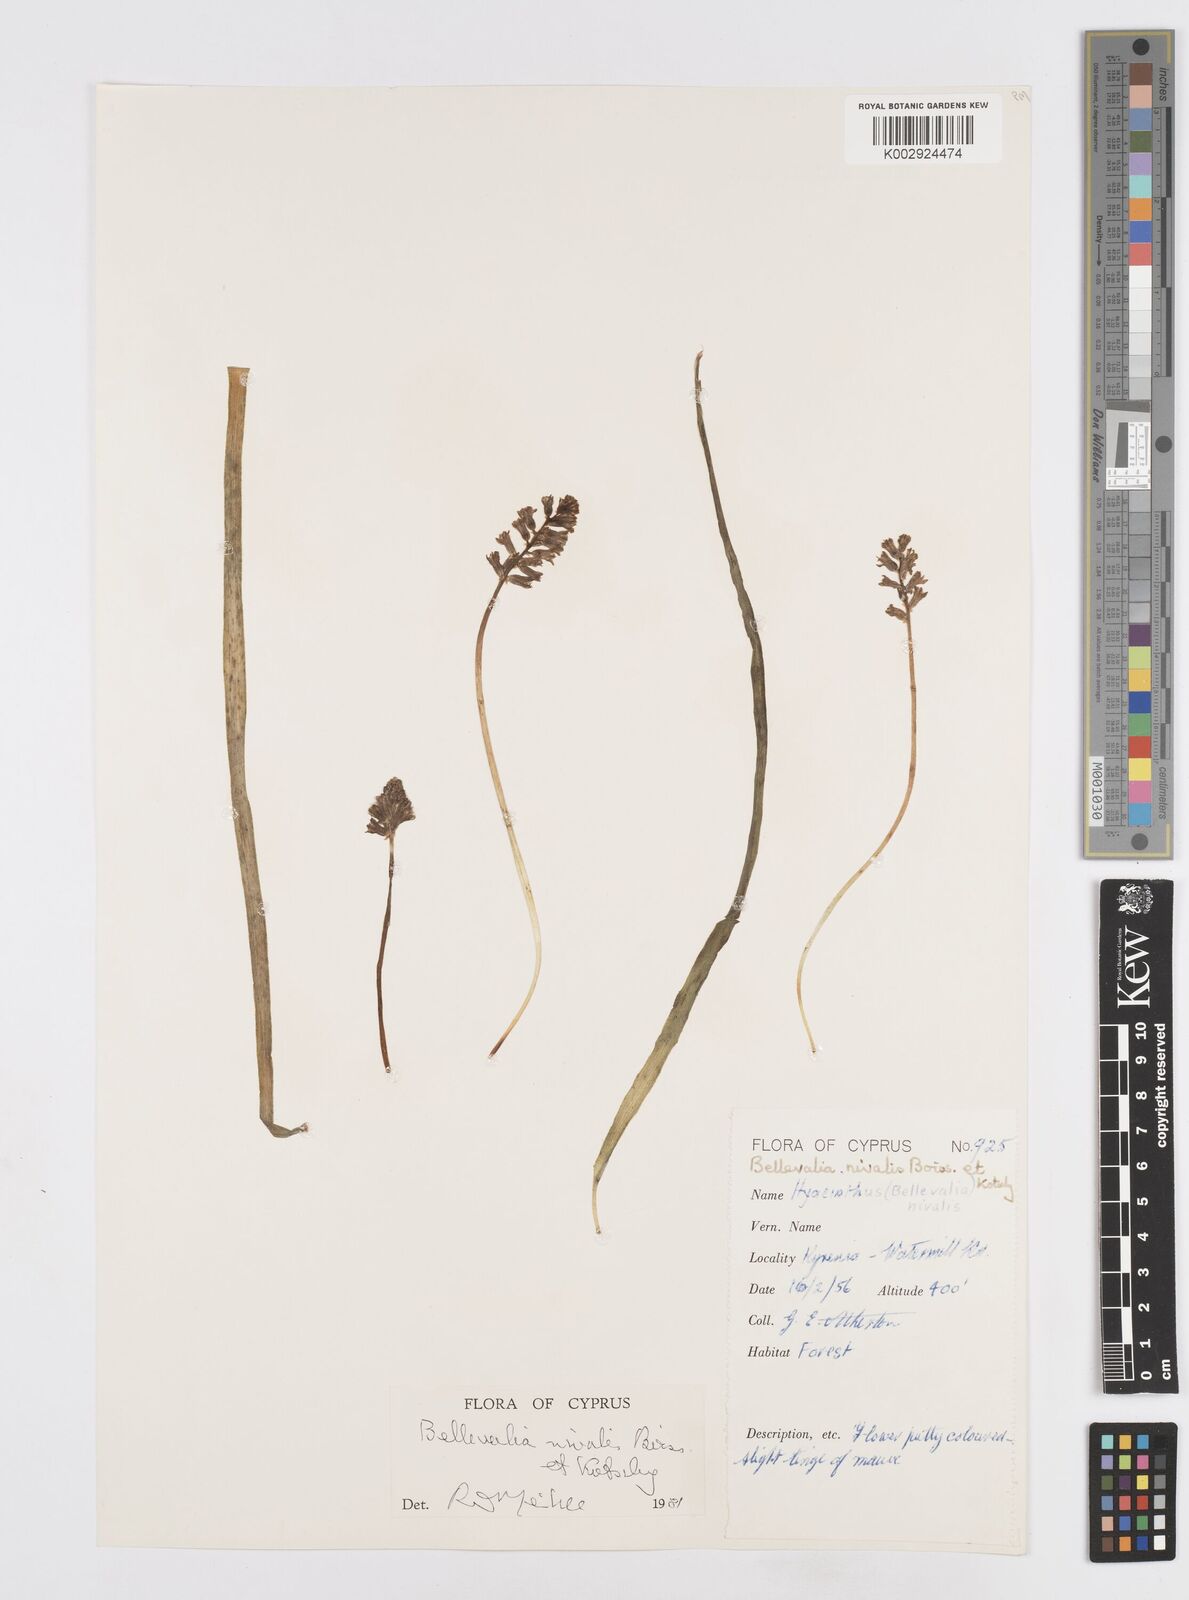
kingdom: Plantae
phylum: Tracheophyta
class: Liliopsida
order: Asparagales
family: Asparagaceae
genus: Bellevalia
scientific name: Bellevalia nivalis
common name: Snow bellevalia
